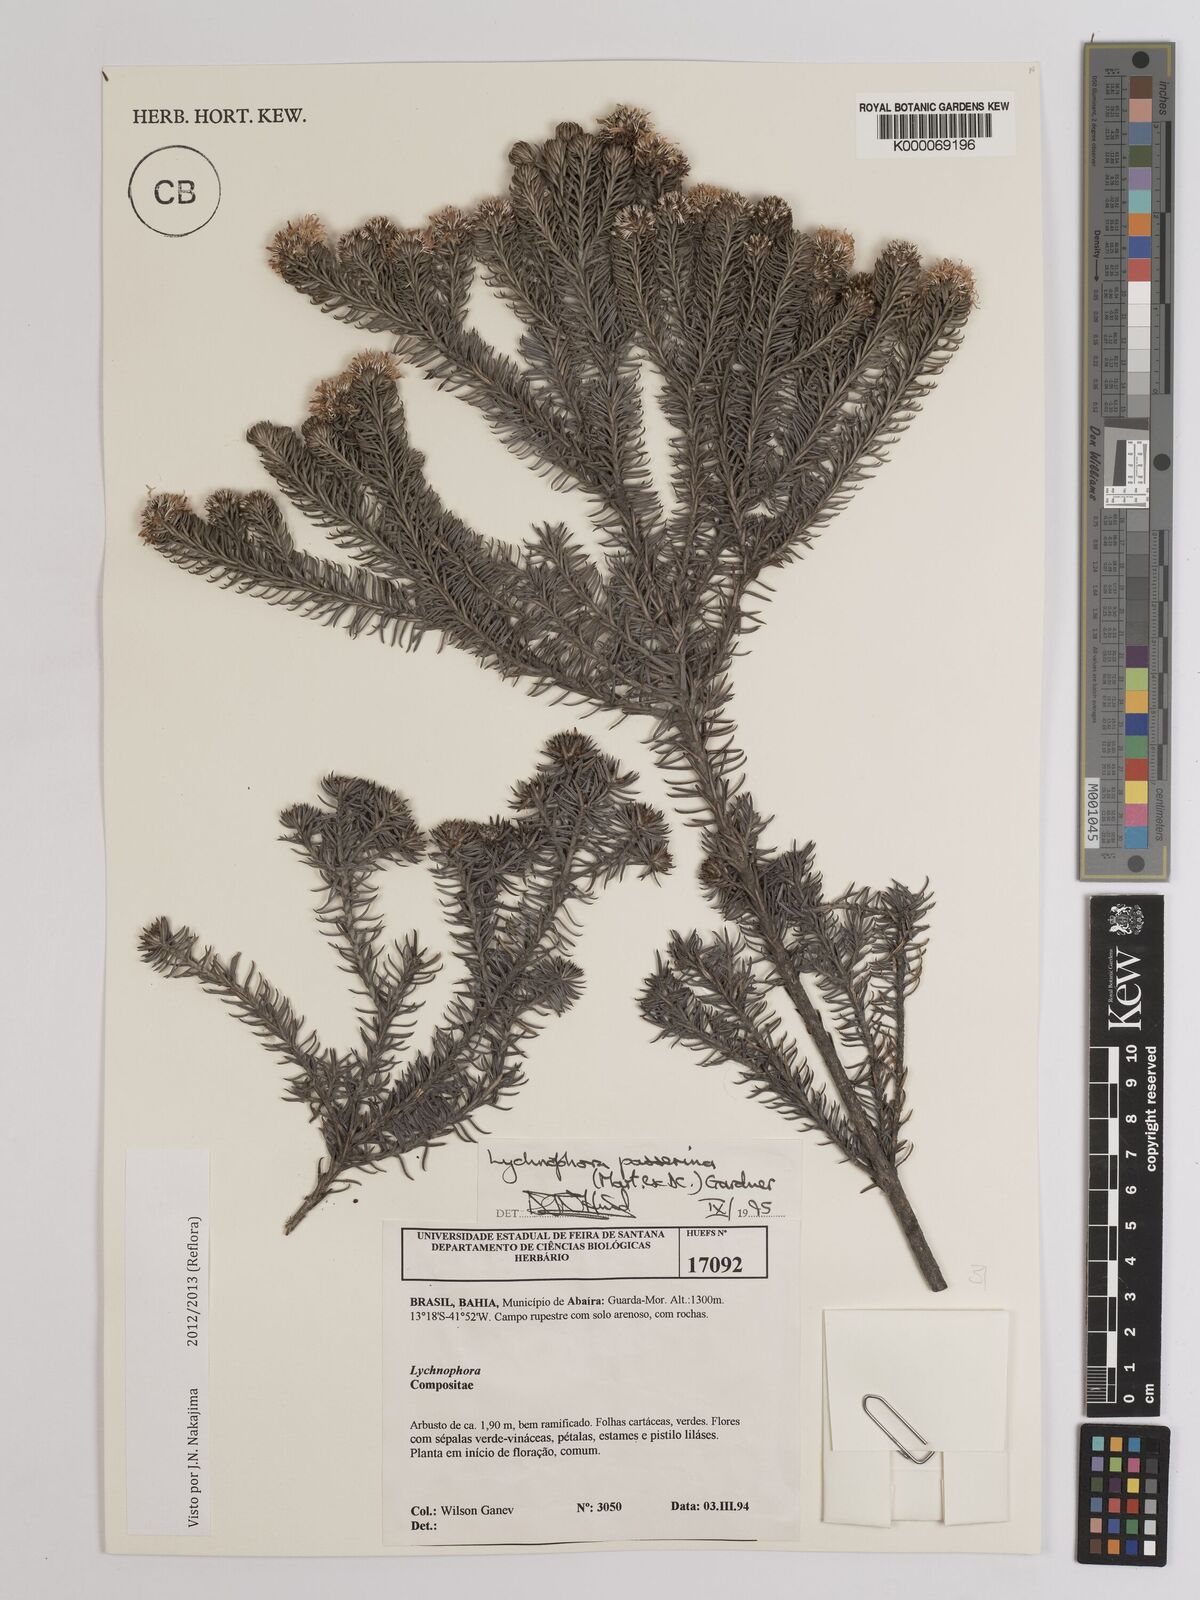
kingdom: Plantae
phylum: Tracheophyta
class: Magnoliopsida
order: Asterales
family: Asteraceae
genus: Lychnophora
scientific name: Lychnophora passerina
